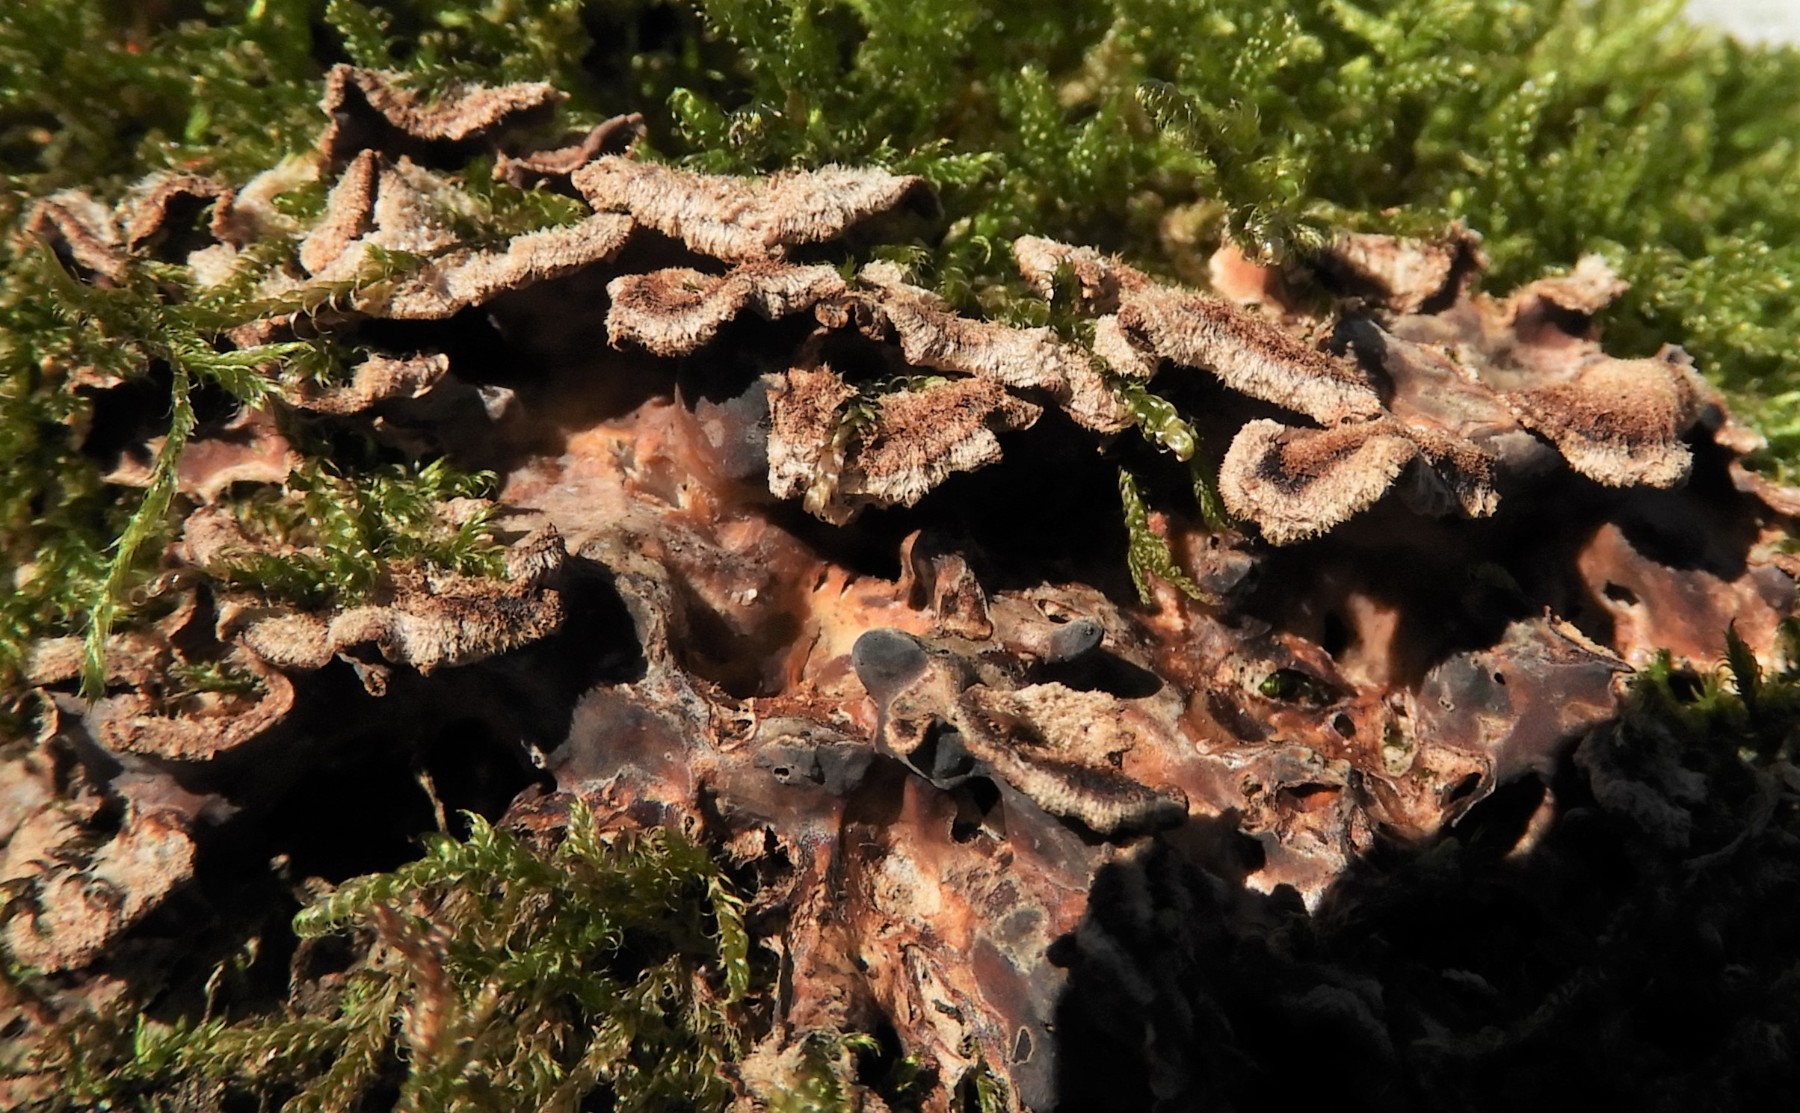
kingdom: Fungi
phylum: Basidiomycota
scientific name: Basidiomycota
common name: basidiesvampe
